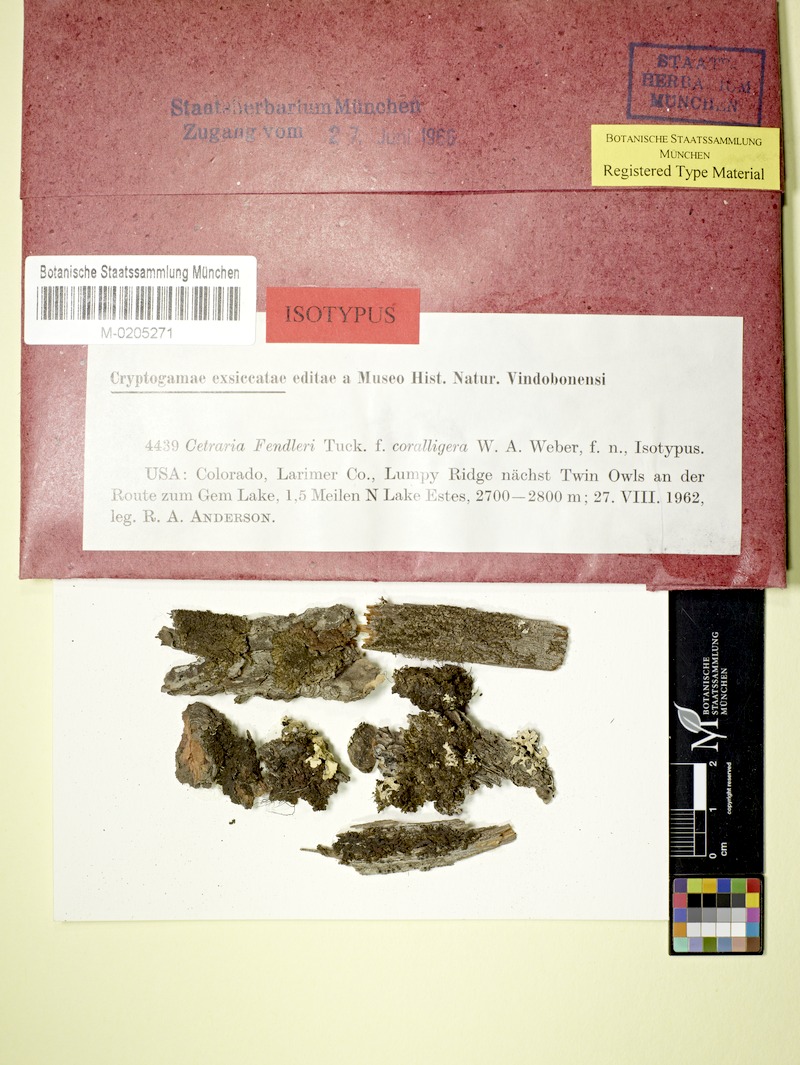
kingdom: Fungi
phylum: Ascomycota
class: Lecanoromycetes
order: Lecanorales
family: Parmeliaceae
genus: Nephromopsis
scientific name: Nephromopsis coralligera
